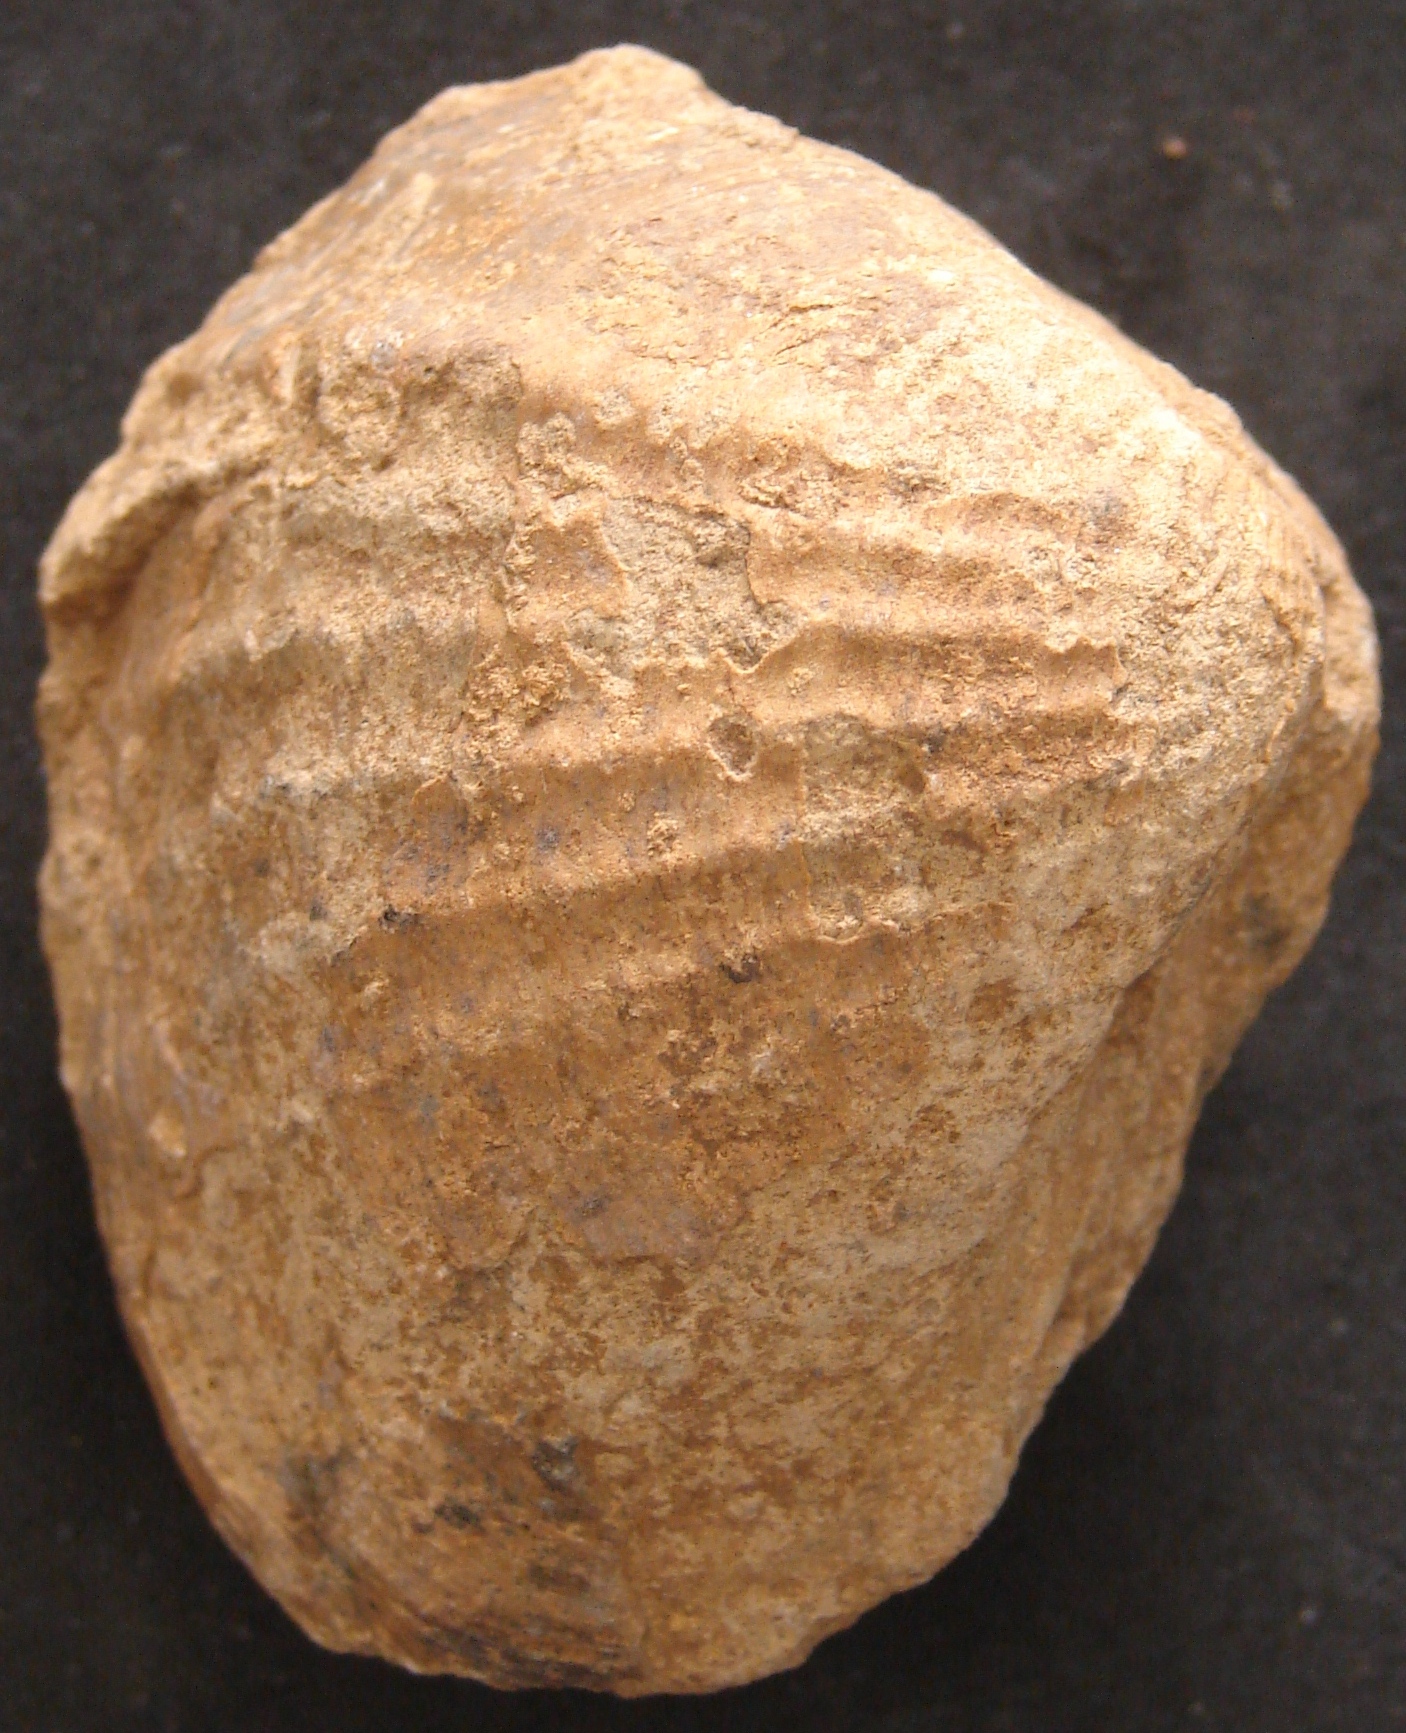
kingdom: Animalia
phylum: Mollusca
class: Bivalvia
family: Pholadomyidae
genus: Pholadomya
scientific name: Pholadomya murchisoni
